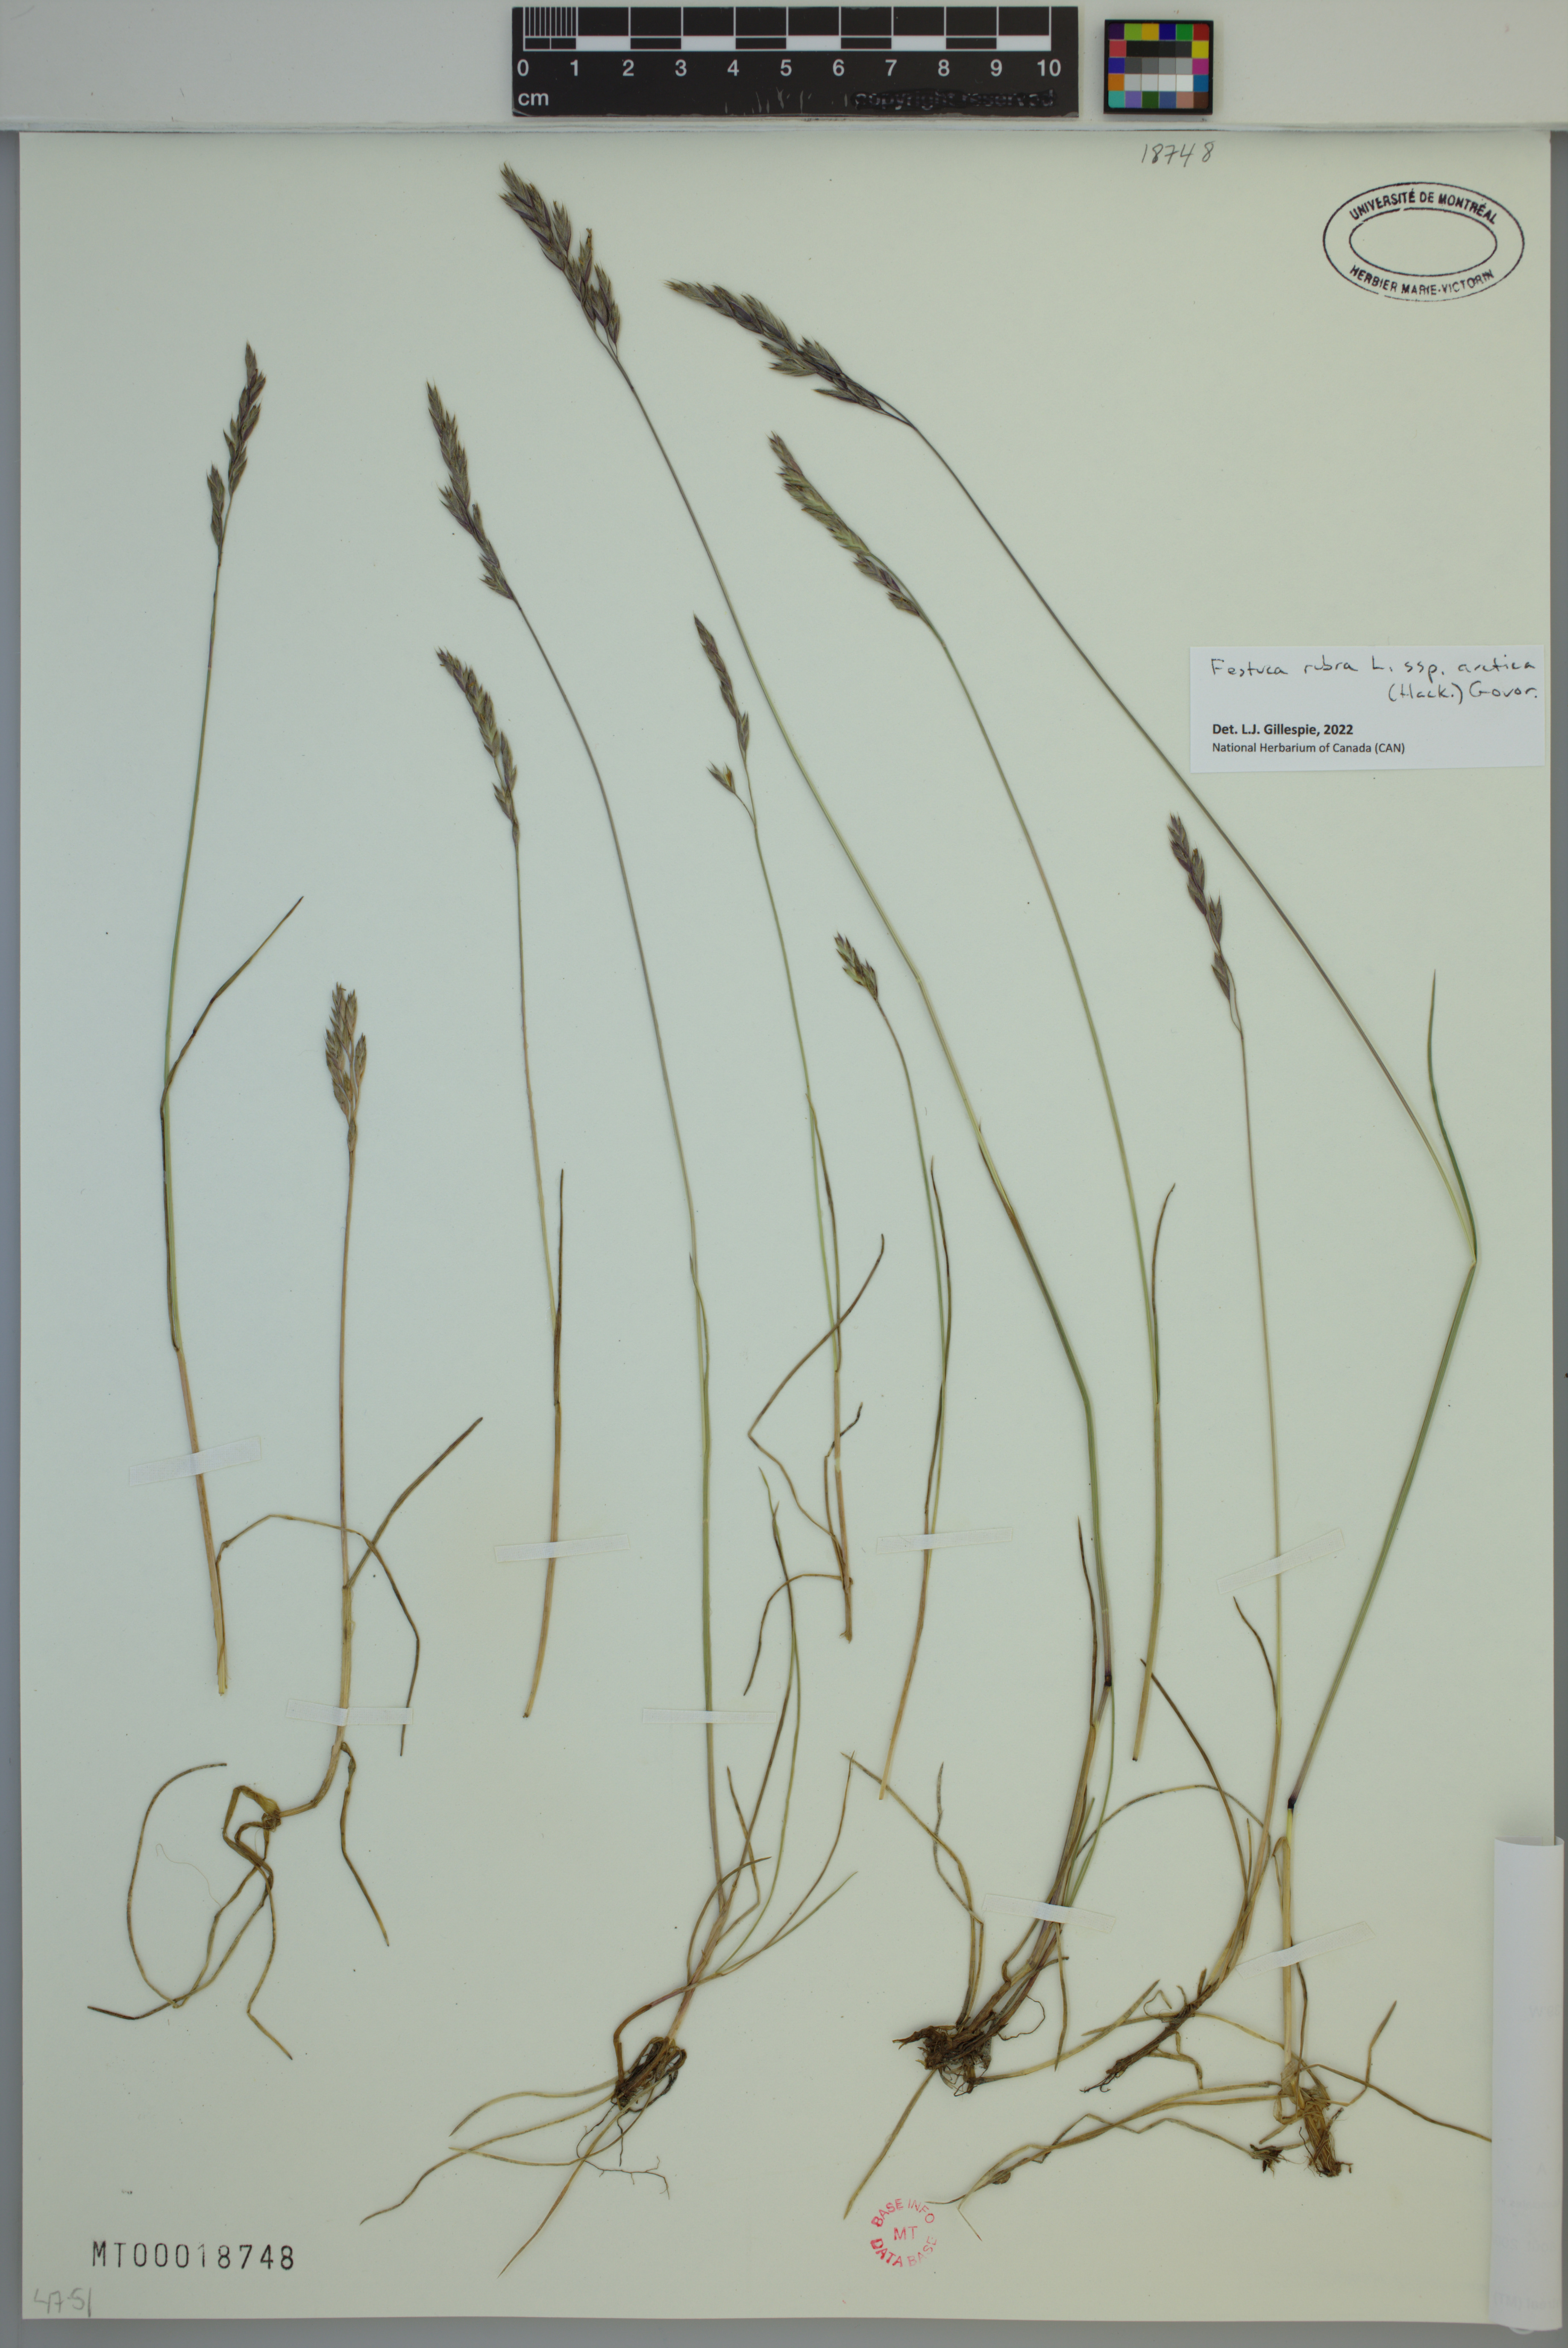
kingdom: Plantae
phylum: Tracheophyta
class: Liliopsida
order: Poales
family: Poaceae
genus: Festuca
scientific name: Festuca richardsonii
